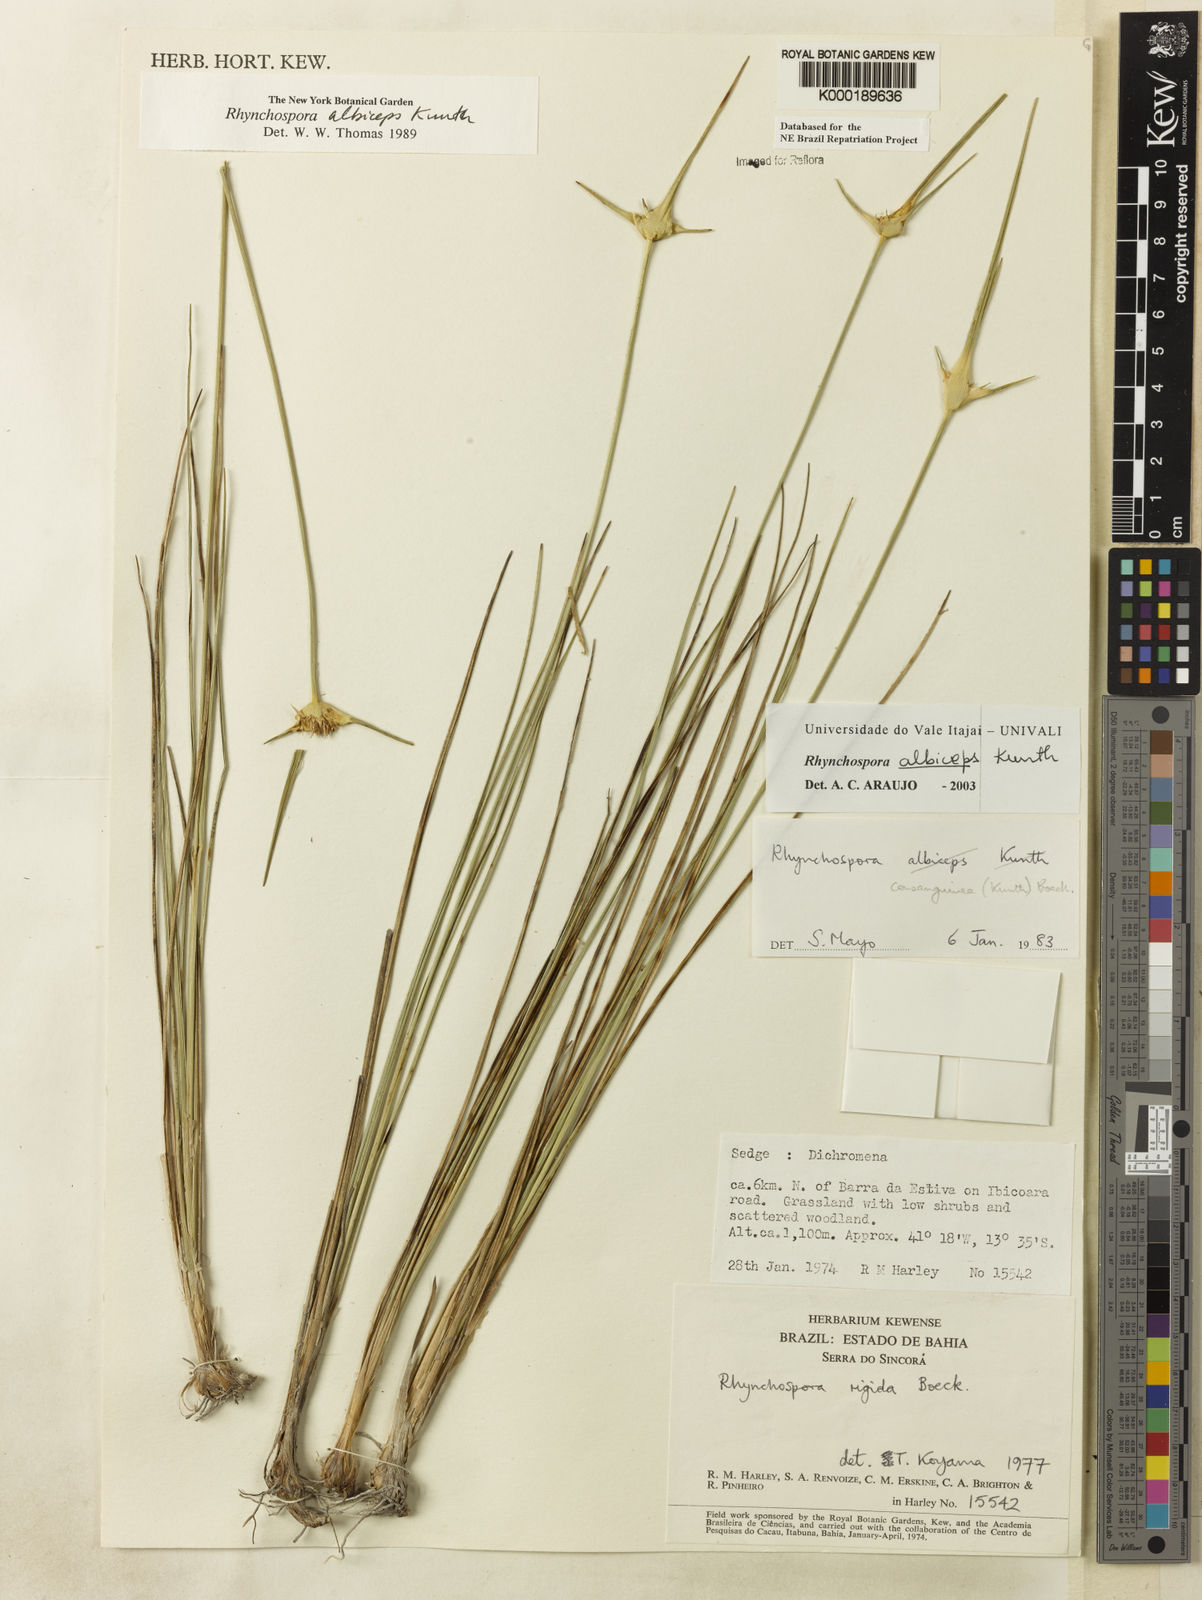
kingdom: Plantae
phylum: Tracheophyta
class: Liliopsida
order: Poales
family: Cyperaceae
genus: Rhynchospora
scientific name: Rhynchospora albiceps
